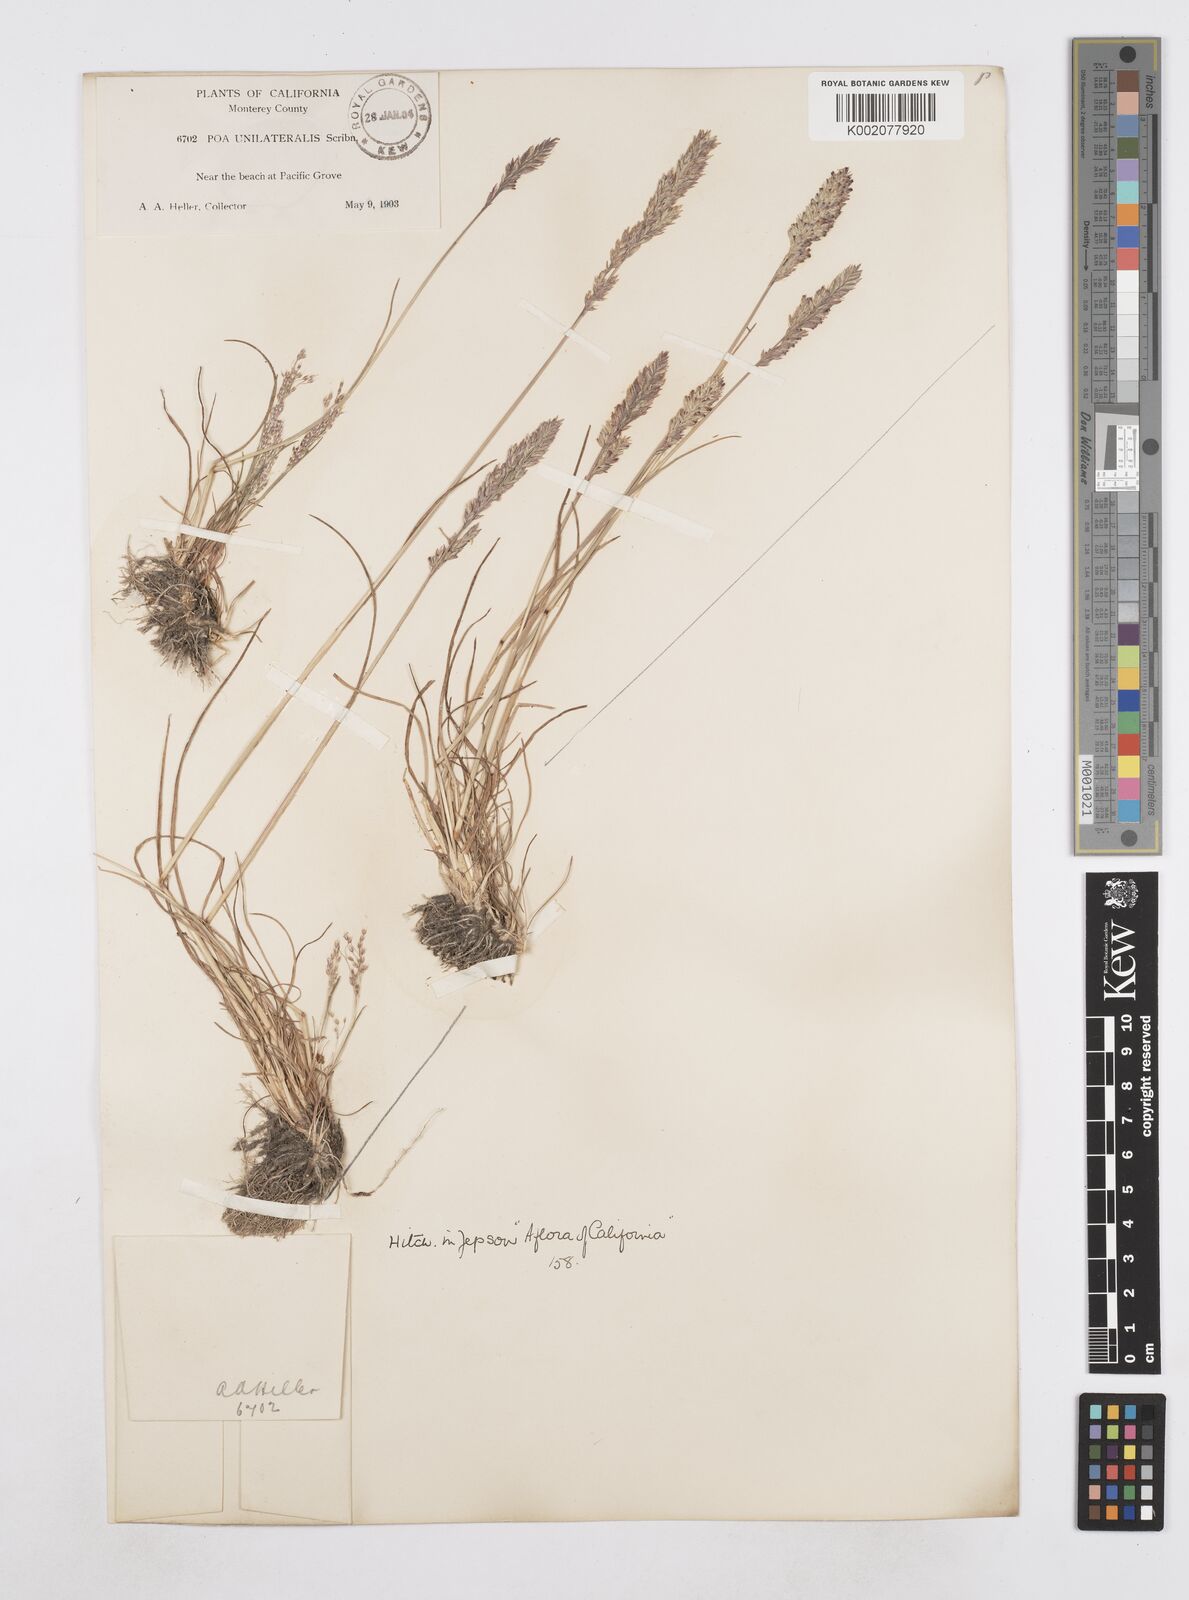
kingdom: Plantae
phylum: Tracheophyta
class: Liliopsida
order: Poales
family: Poaceae
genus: Poa
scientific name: Poa unilateralis
